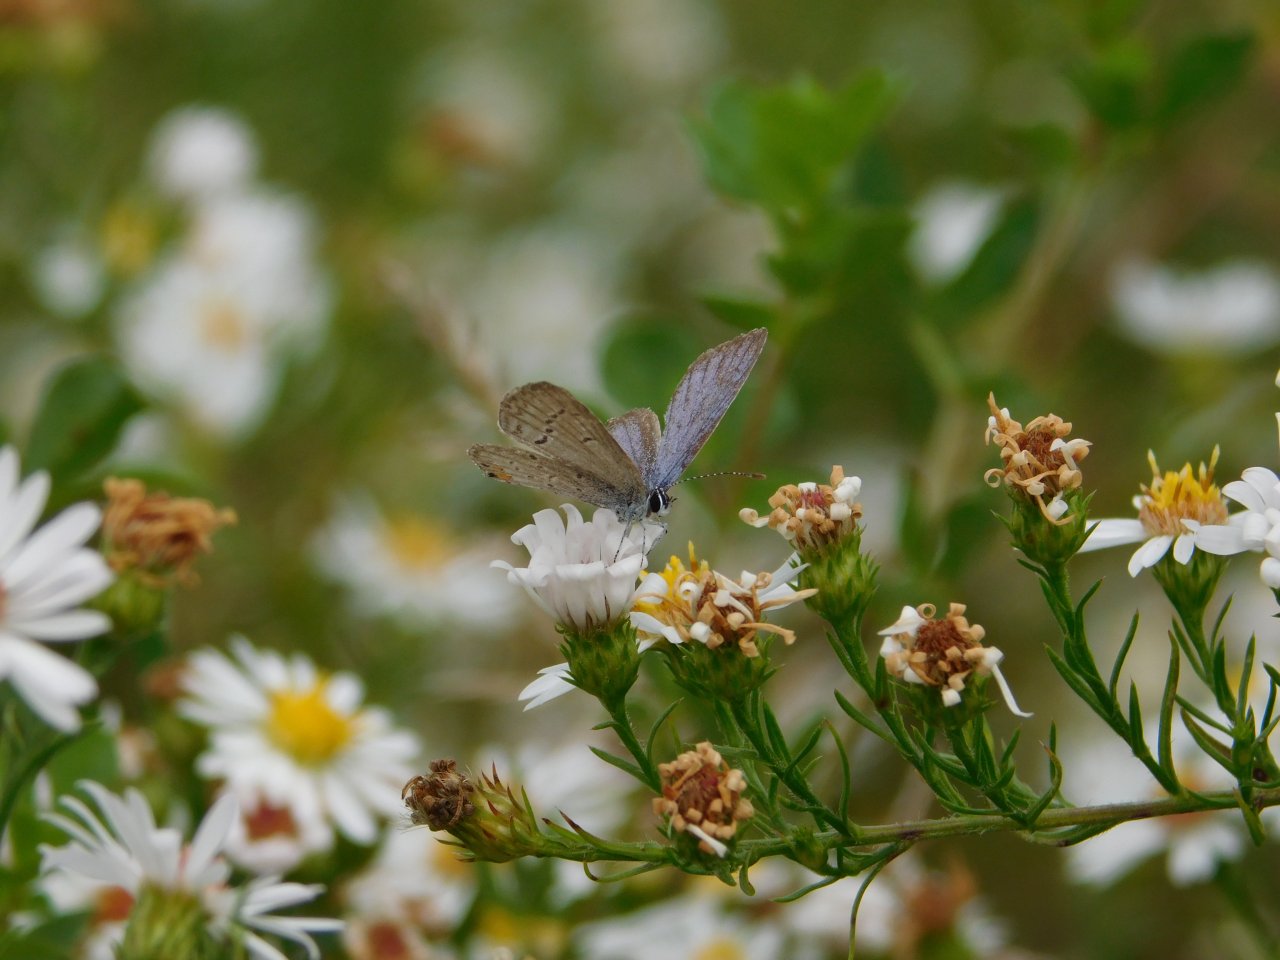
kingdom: Animalia
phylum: Arthropoda
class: Insecta
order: Lepidoptera
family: Lycaenidae
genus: Elkalyce
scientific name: Elkalyce comyntas
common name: Eastern Tailed-Blue
